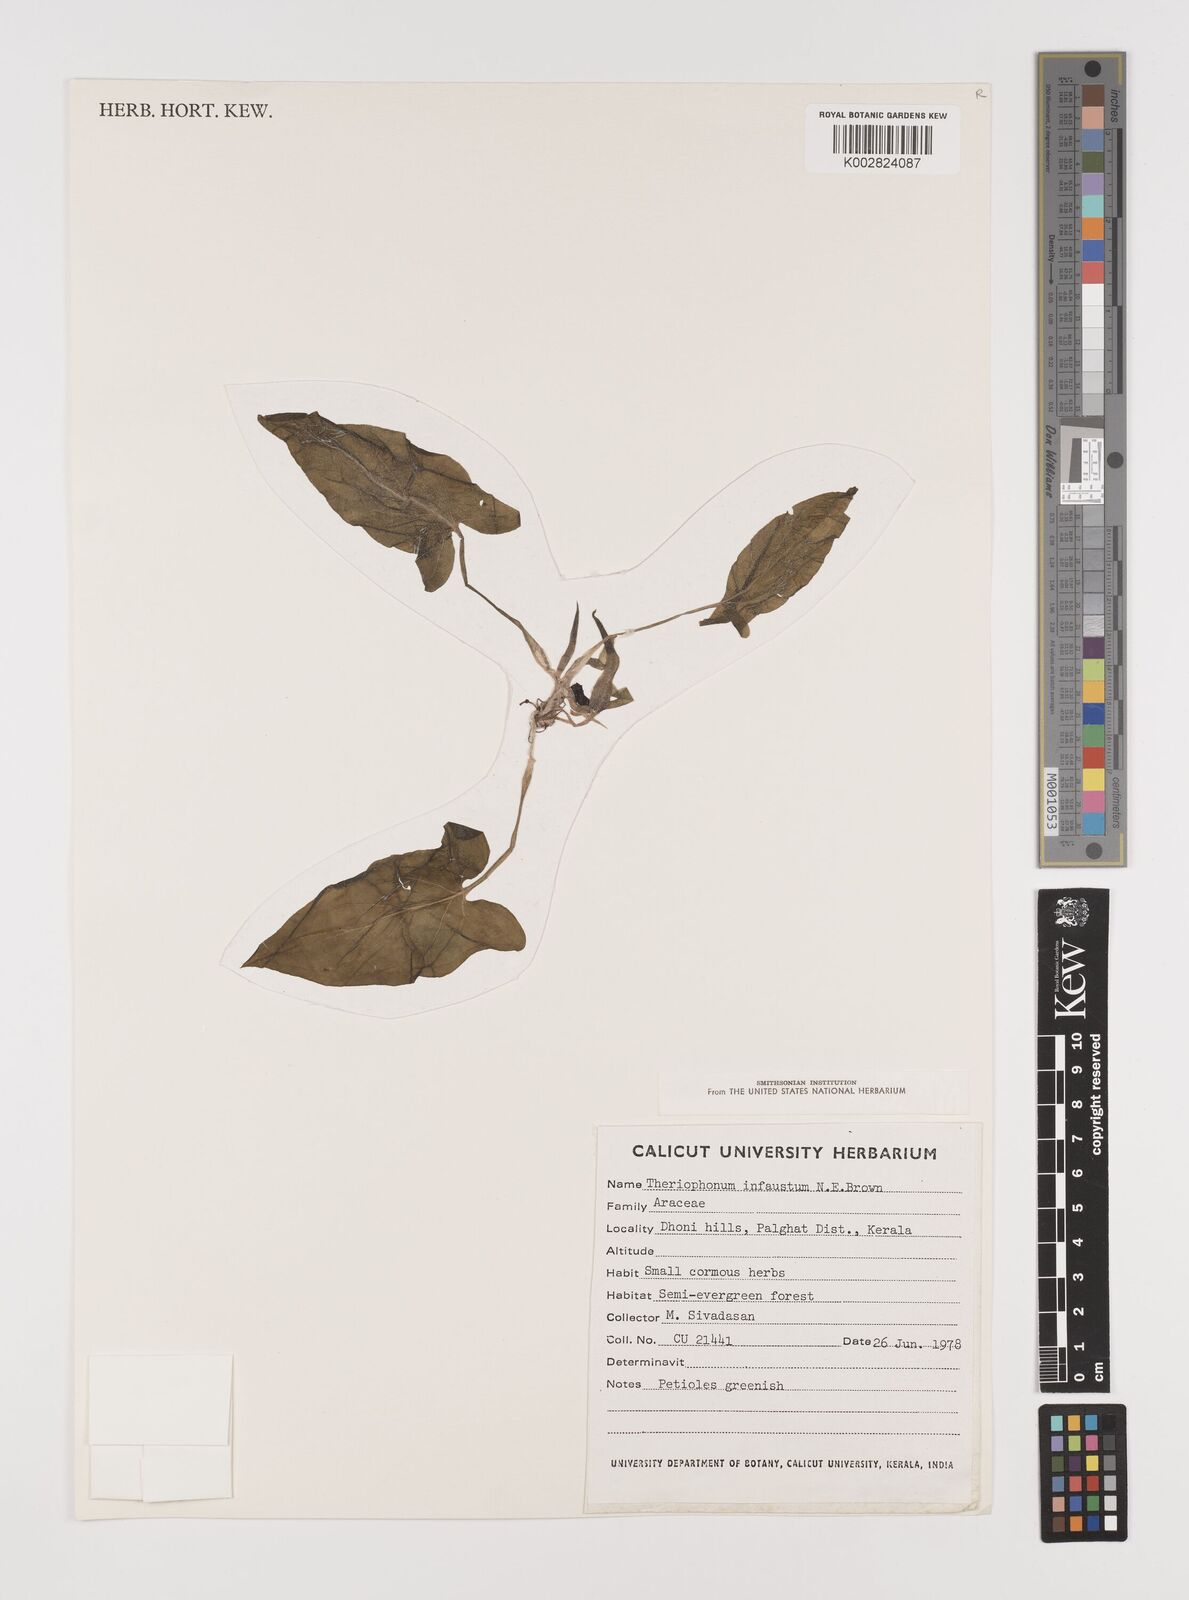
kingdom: Plantae
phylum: Tracheophyta
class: Liliopsida
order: Alismatales
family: Araceae
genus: Theriophonum
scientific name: Theriophonum infaustum
